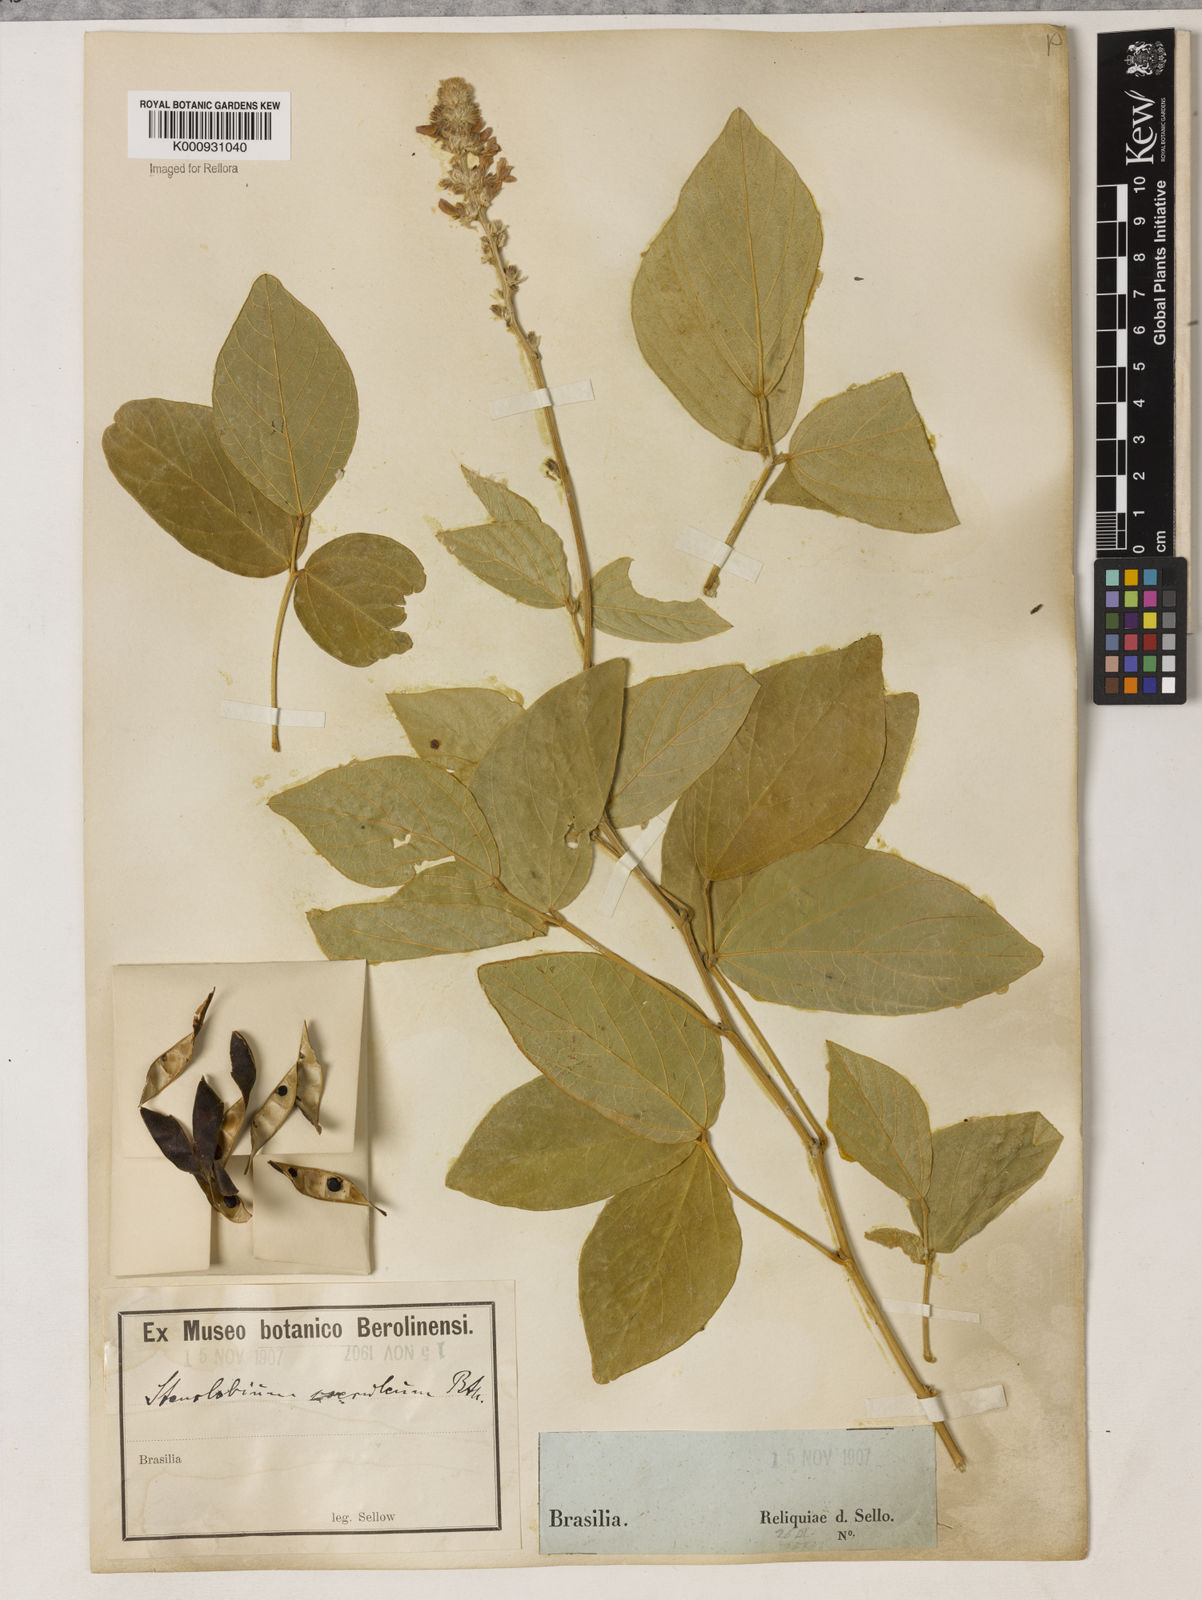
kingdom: Plantae
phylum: Tracheophyta
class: Magnoliopsida
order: Fabales
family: Fabaceae
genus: Calopogonium
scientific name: Calopogonium caeruleum
